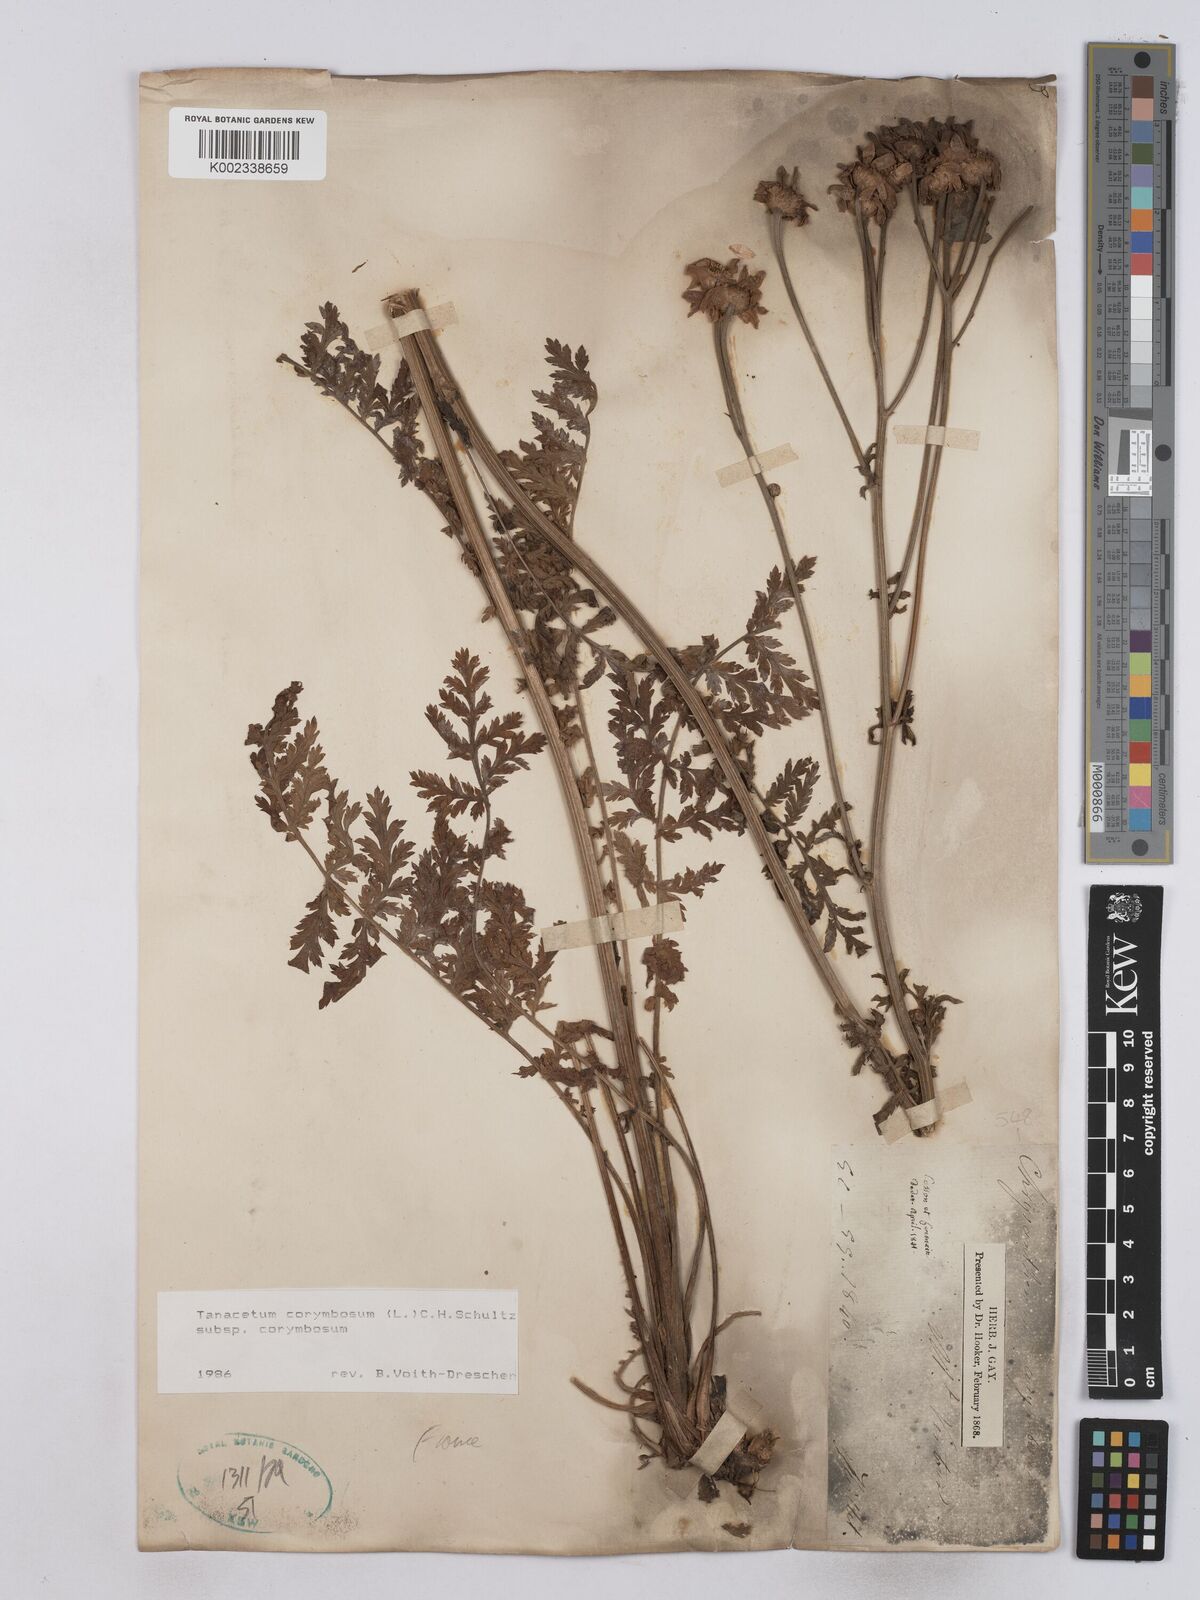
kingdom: Plantae
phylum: Tracheophyta
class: Magnoliopsida
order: Asterales
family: Asteraceae
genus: Tanacetum
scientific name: Tanacetum corymbosum
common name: Scentless feverfew
